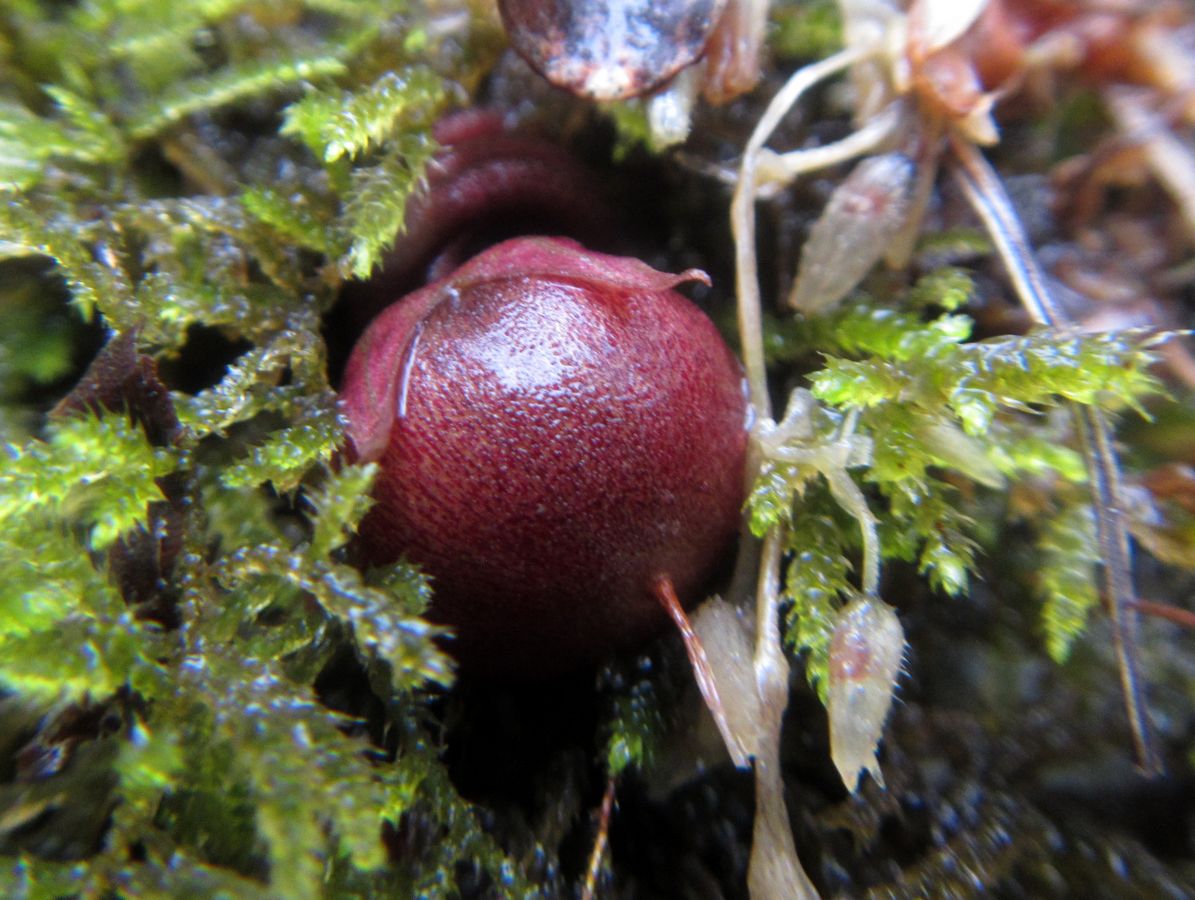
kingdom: Plantae
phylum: Tracheophyta
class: Magnoliopsida
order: Ericales
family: Primulaceae
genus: Cyclamen
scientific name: Cyclamen coum
